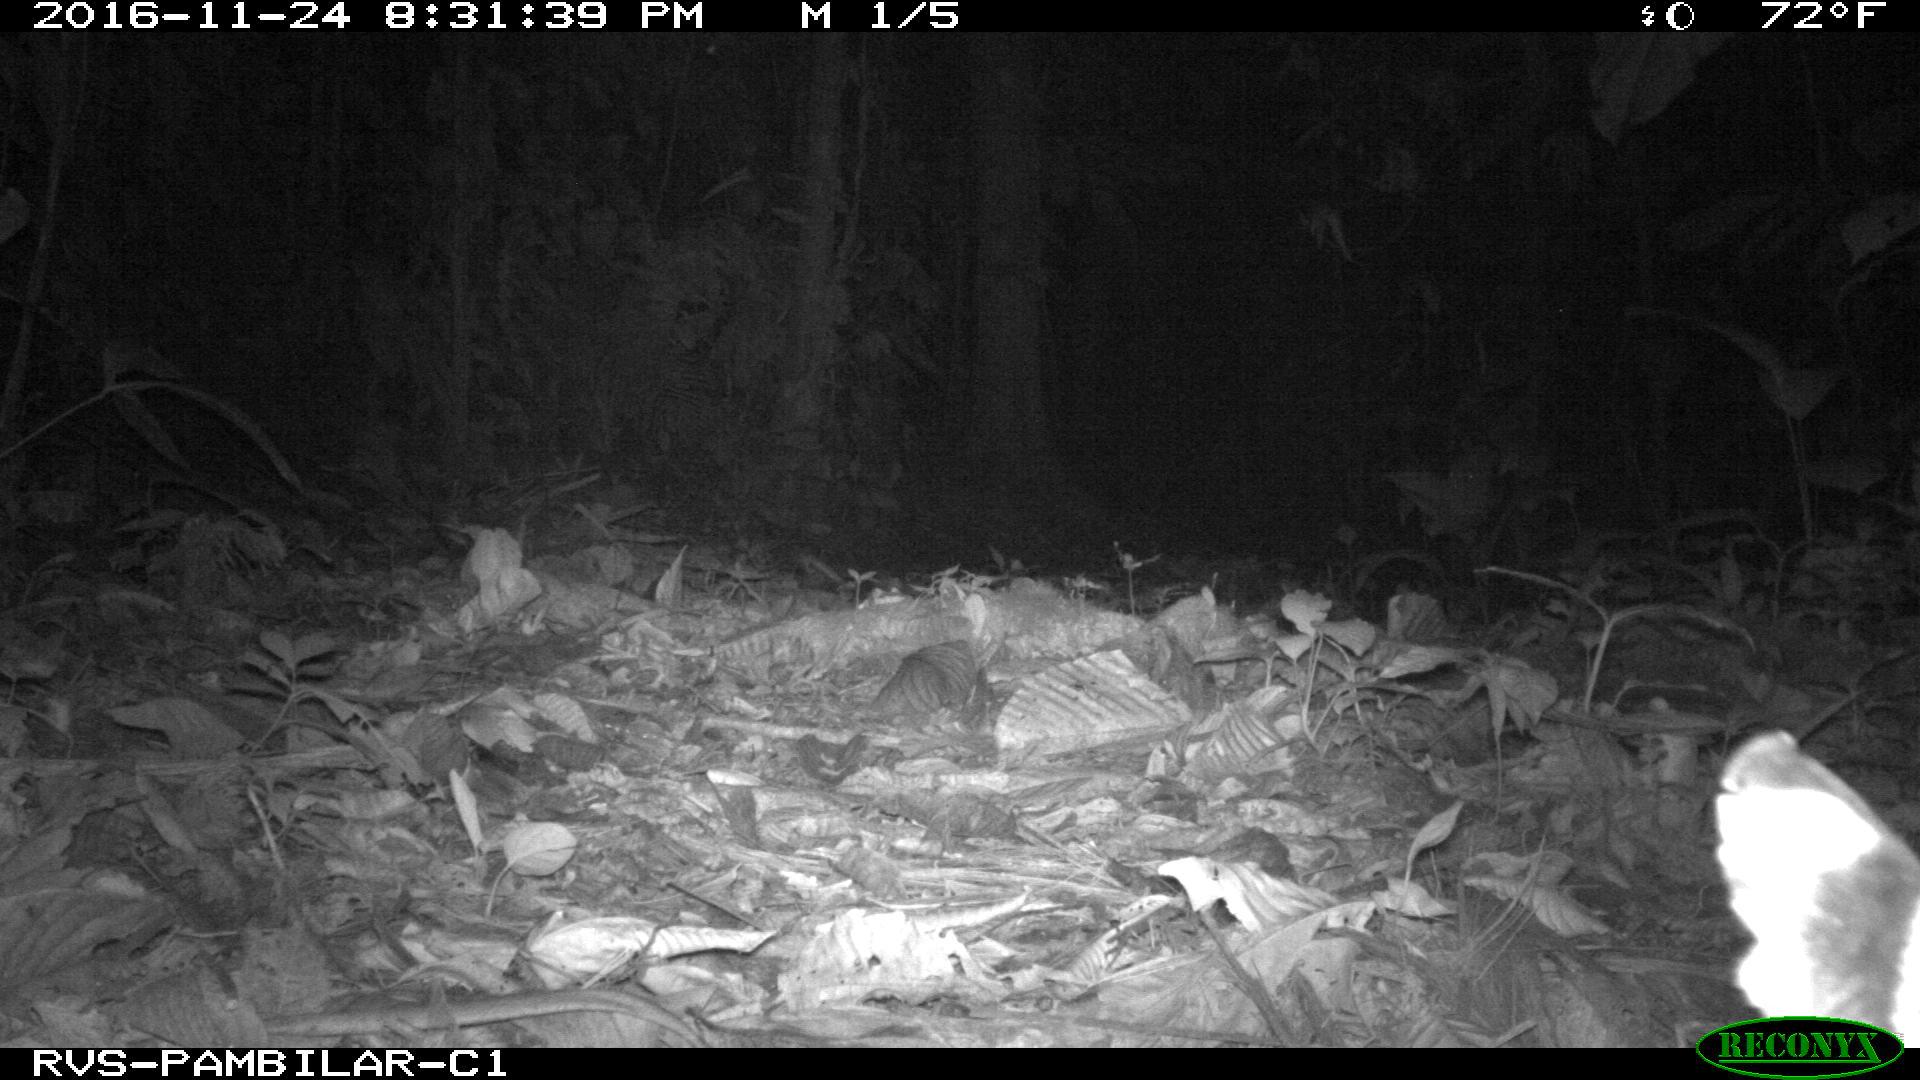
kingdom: Animalia
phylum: Chordata
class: Mammalia
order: Carnivora
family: Felidae
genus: Leopardus
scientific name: Leopardus pardalis
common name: Ocelot
